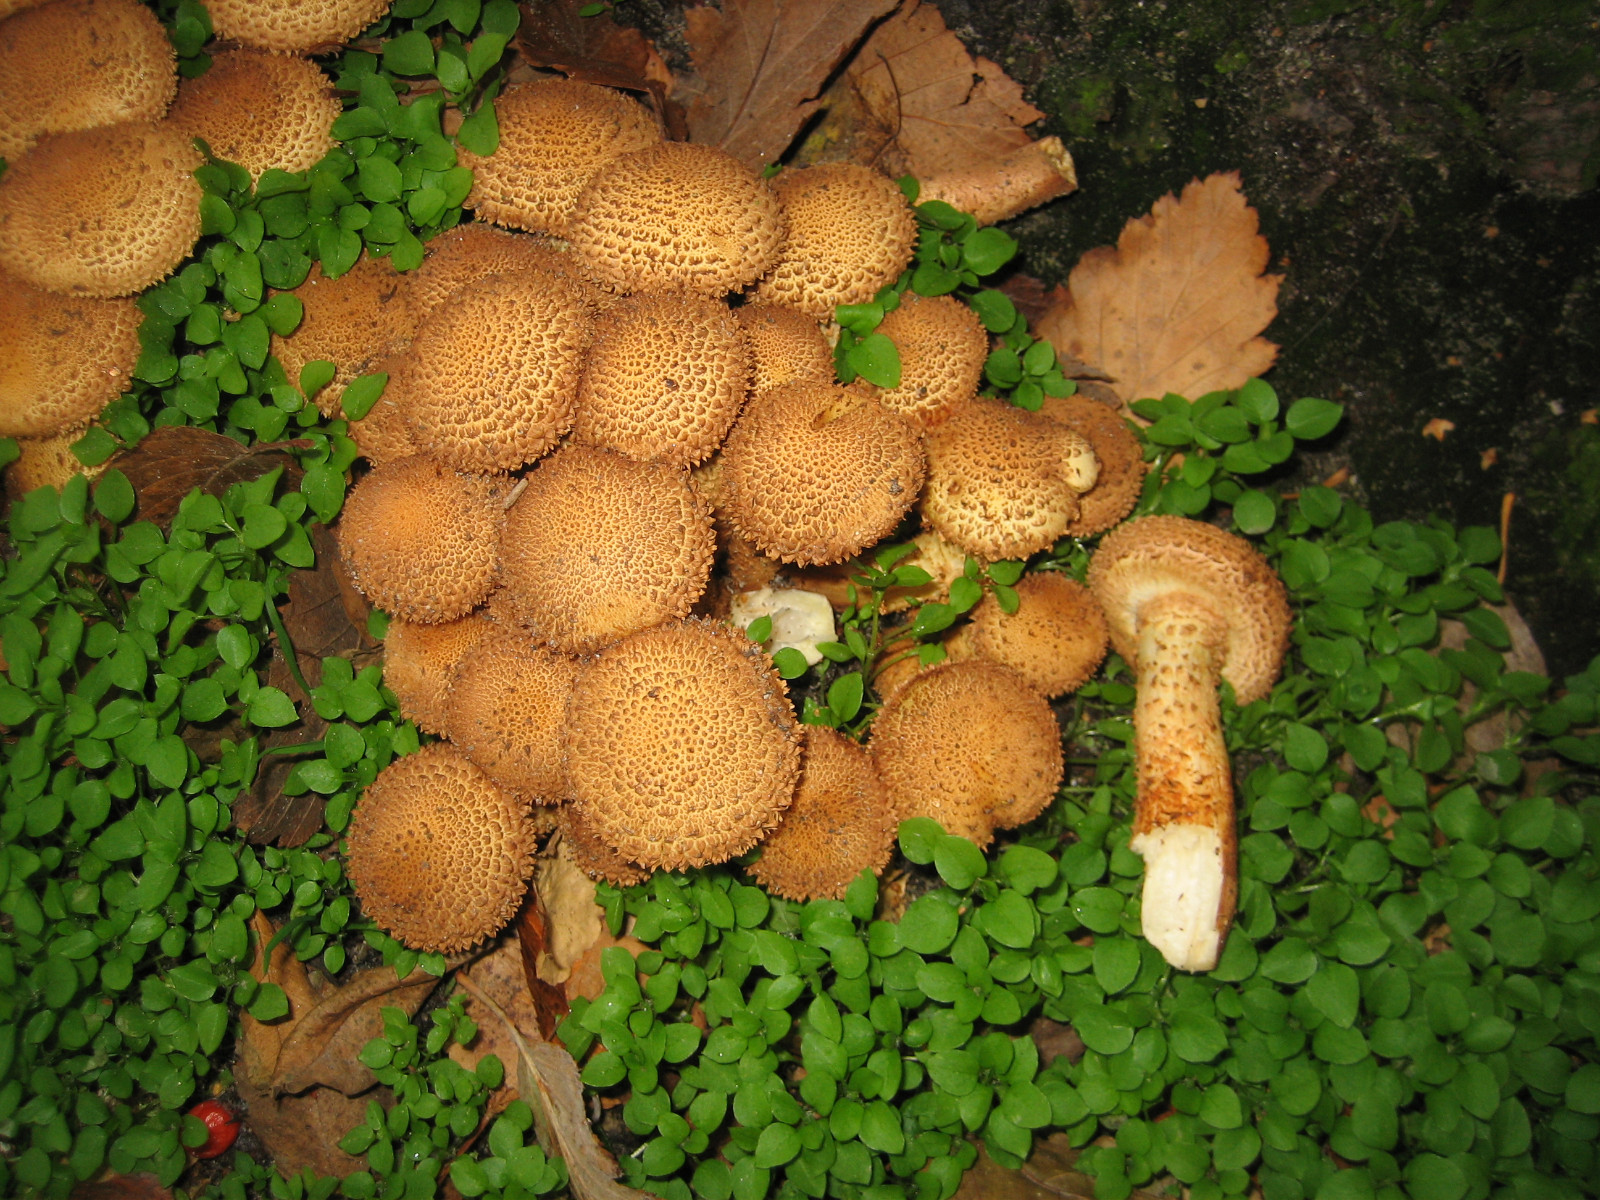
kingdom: Fungi
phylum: Basidiomycota
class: Agaricomycetes
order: Agaricales
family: Strophariaceae
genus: Pholiota
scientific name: Pholiota squarrosa
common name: krumskællet skælhat
